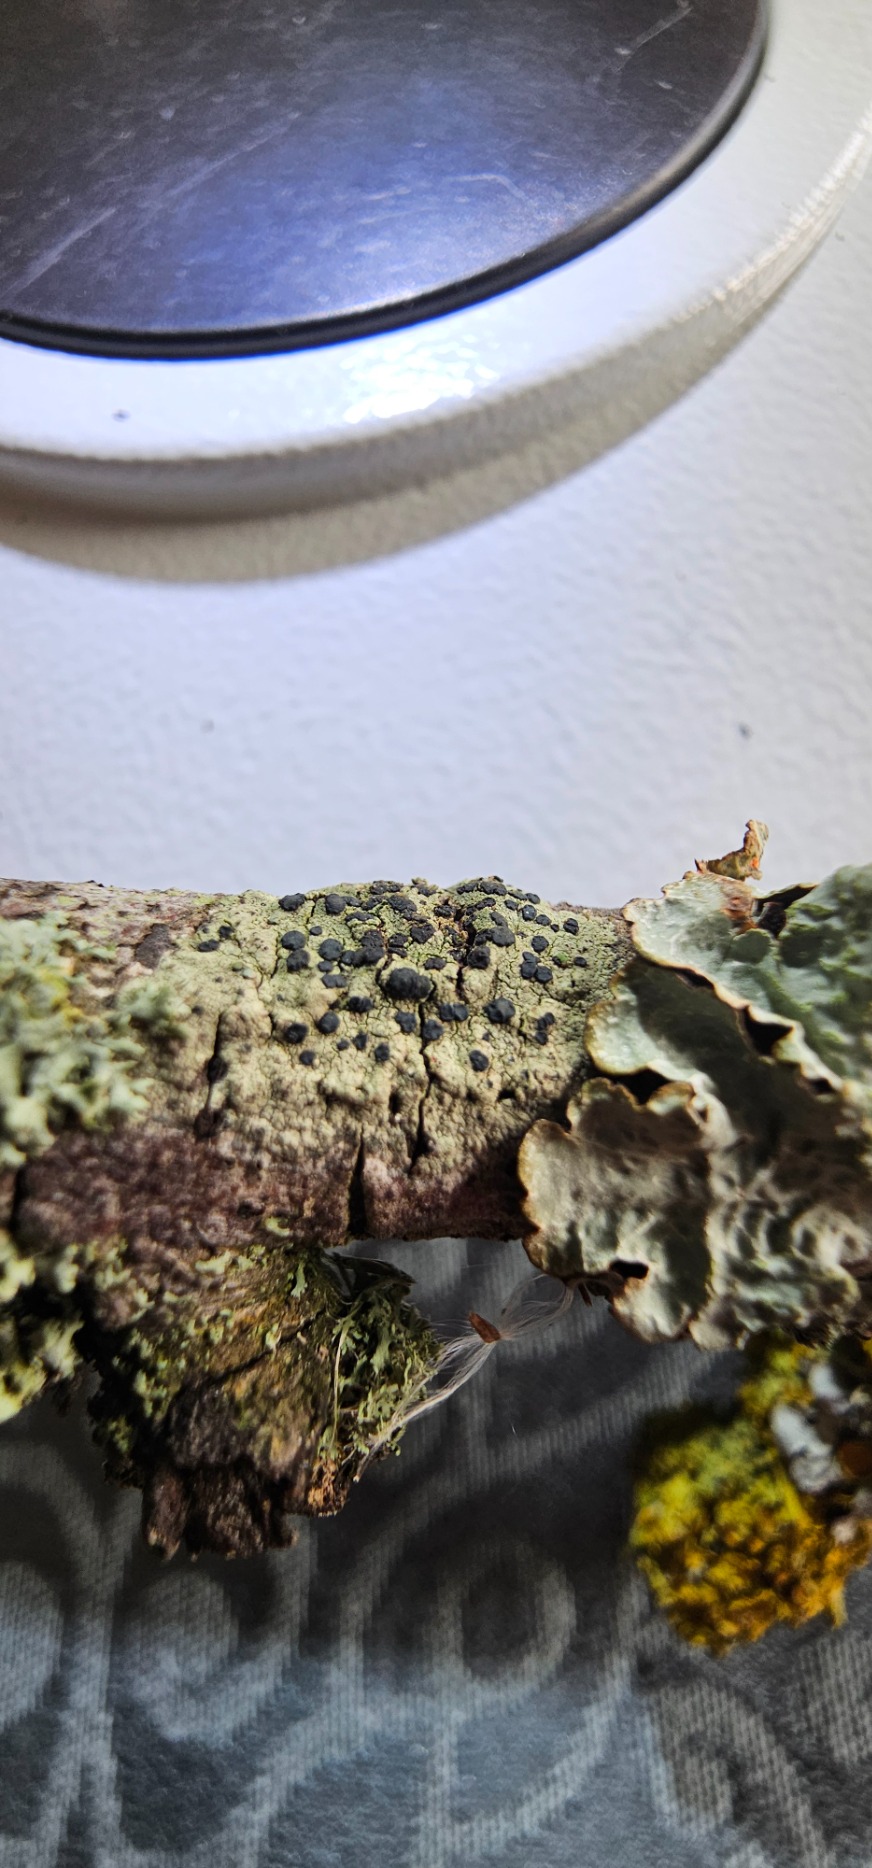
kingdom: Fungi
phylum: Ascomycota
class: Lecanoromycetes
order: Lecanorales
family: Lecanoraceae
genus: Lecidella
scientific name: Lecidella elaeochroma
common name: Grågrøn skivelav
